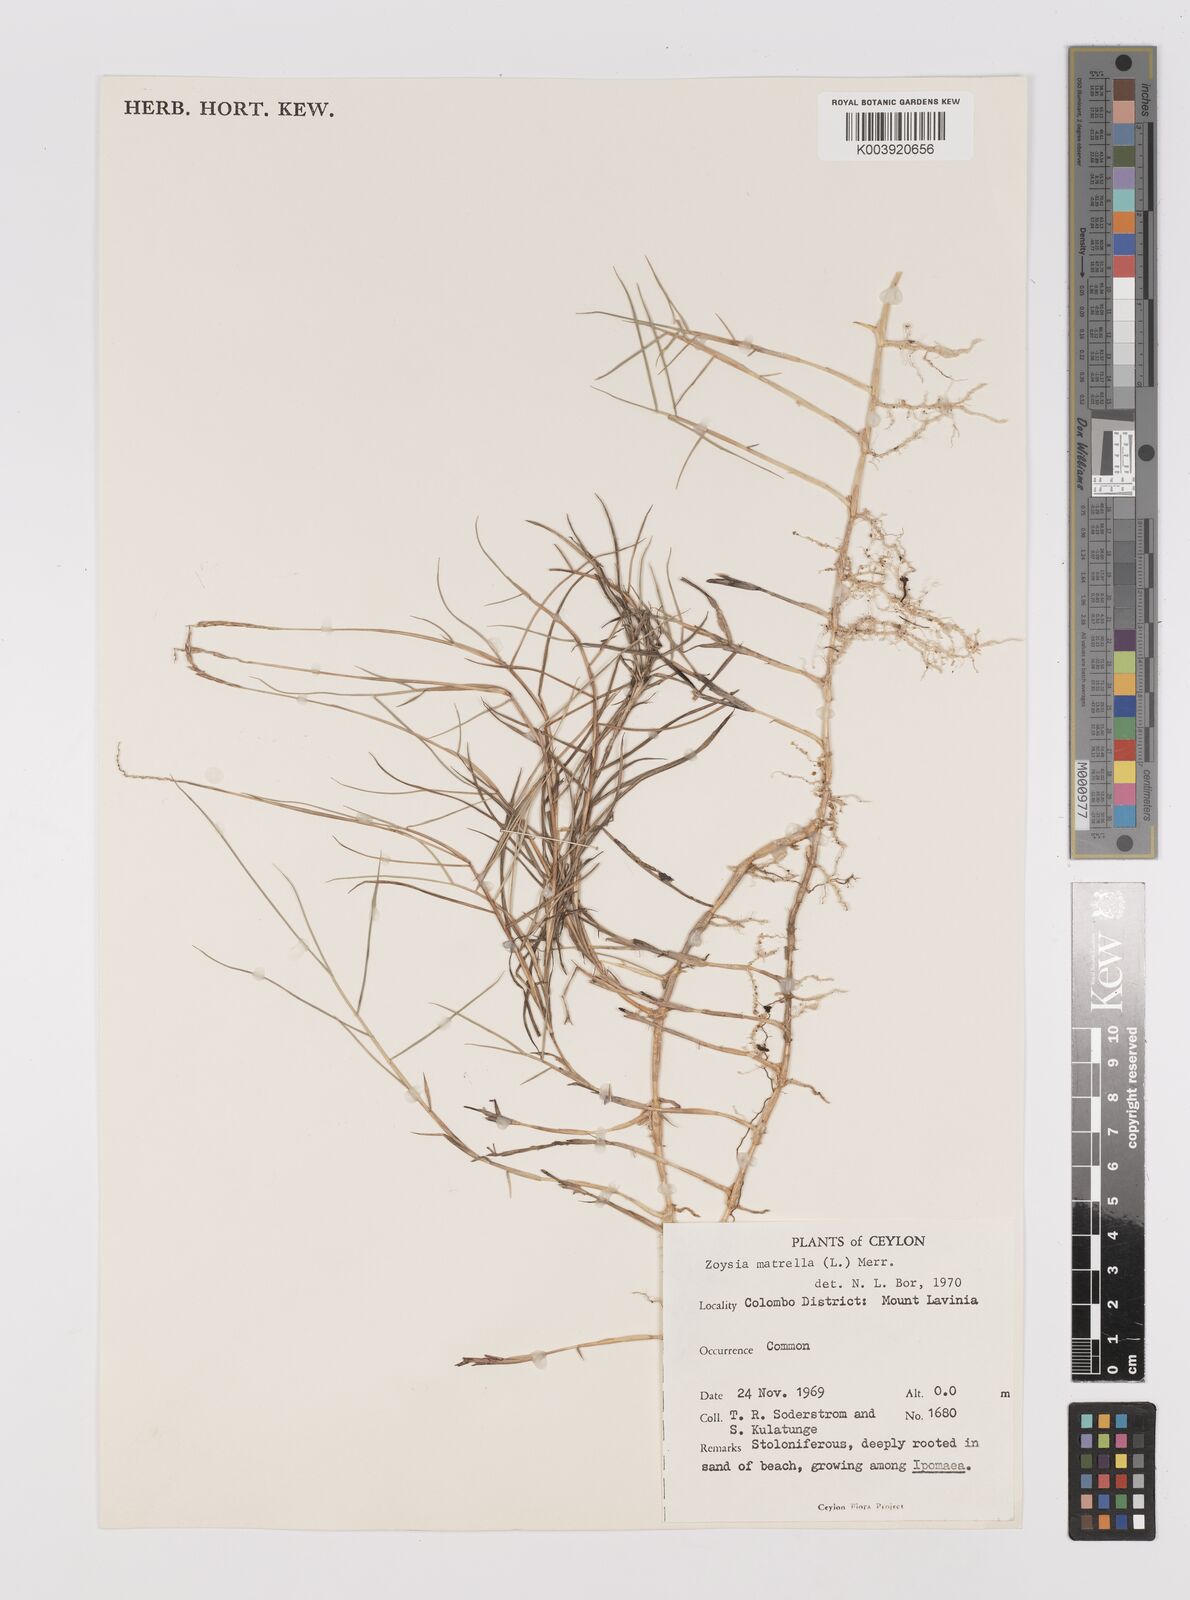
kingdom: Plantae
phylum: Tracheophyta
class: Liliopsida
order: Poales
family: Poaceae
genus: Zoysia
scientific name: Zoysia matrella
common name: Manila grass
